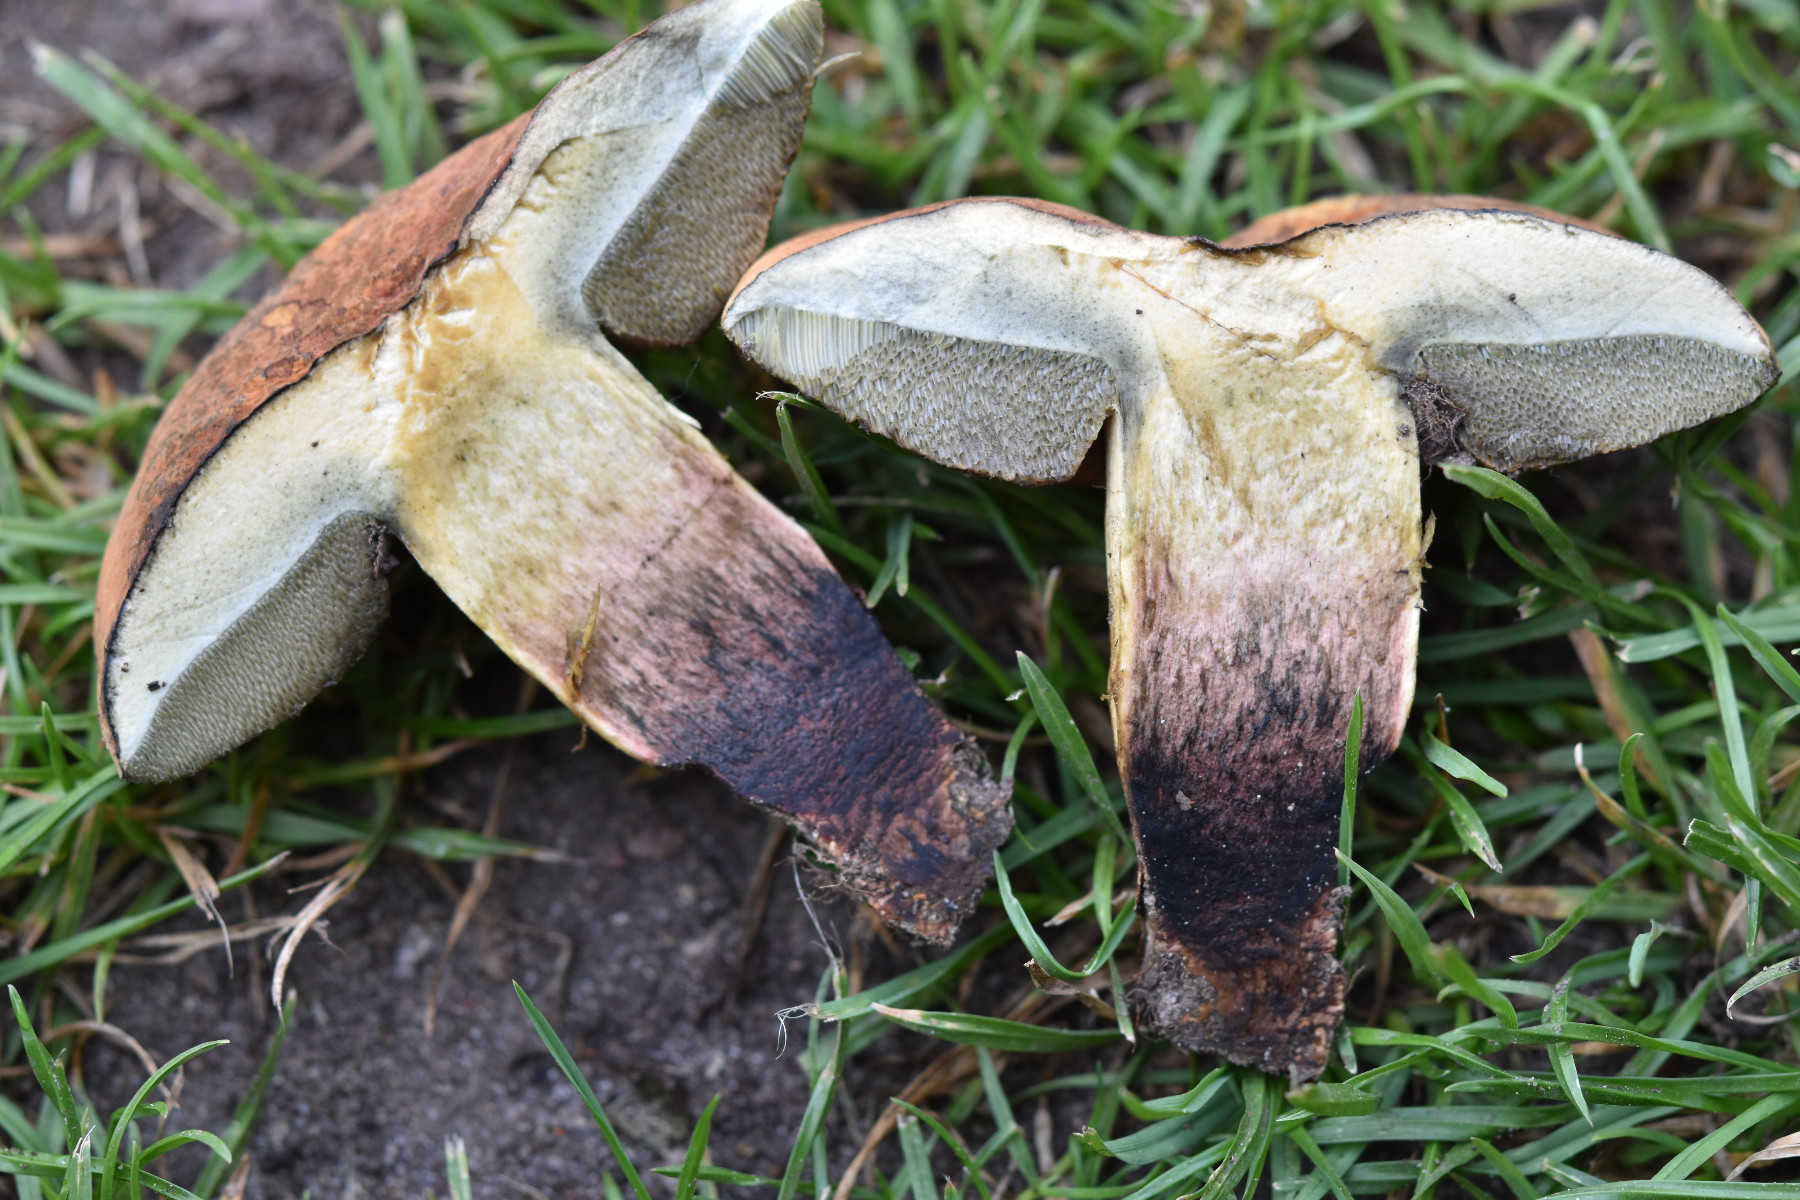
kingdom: Fungi
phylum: Basidiomycota
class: Agaricomycetes
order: Boletales
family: Boletaceae
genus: Suillellus
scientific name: Suillellus queletii
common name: glatstokket indigorørhat
